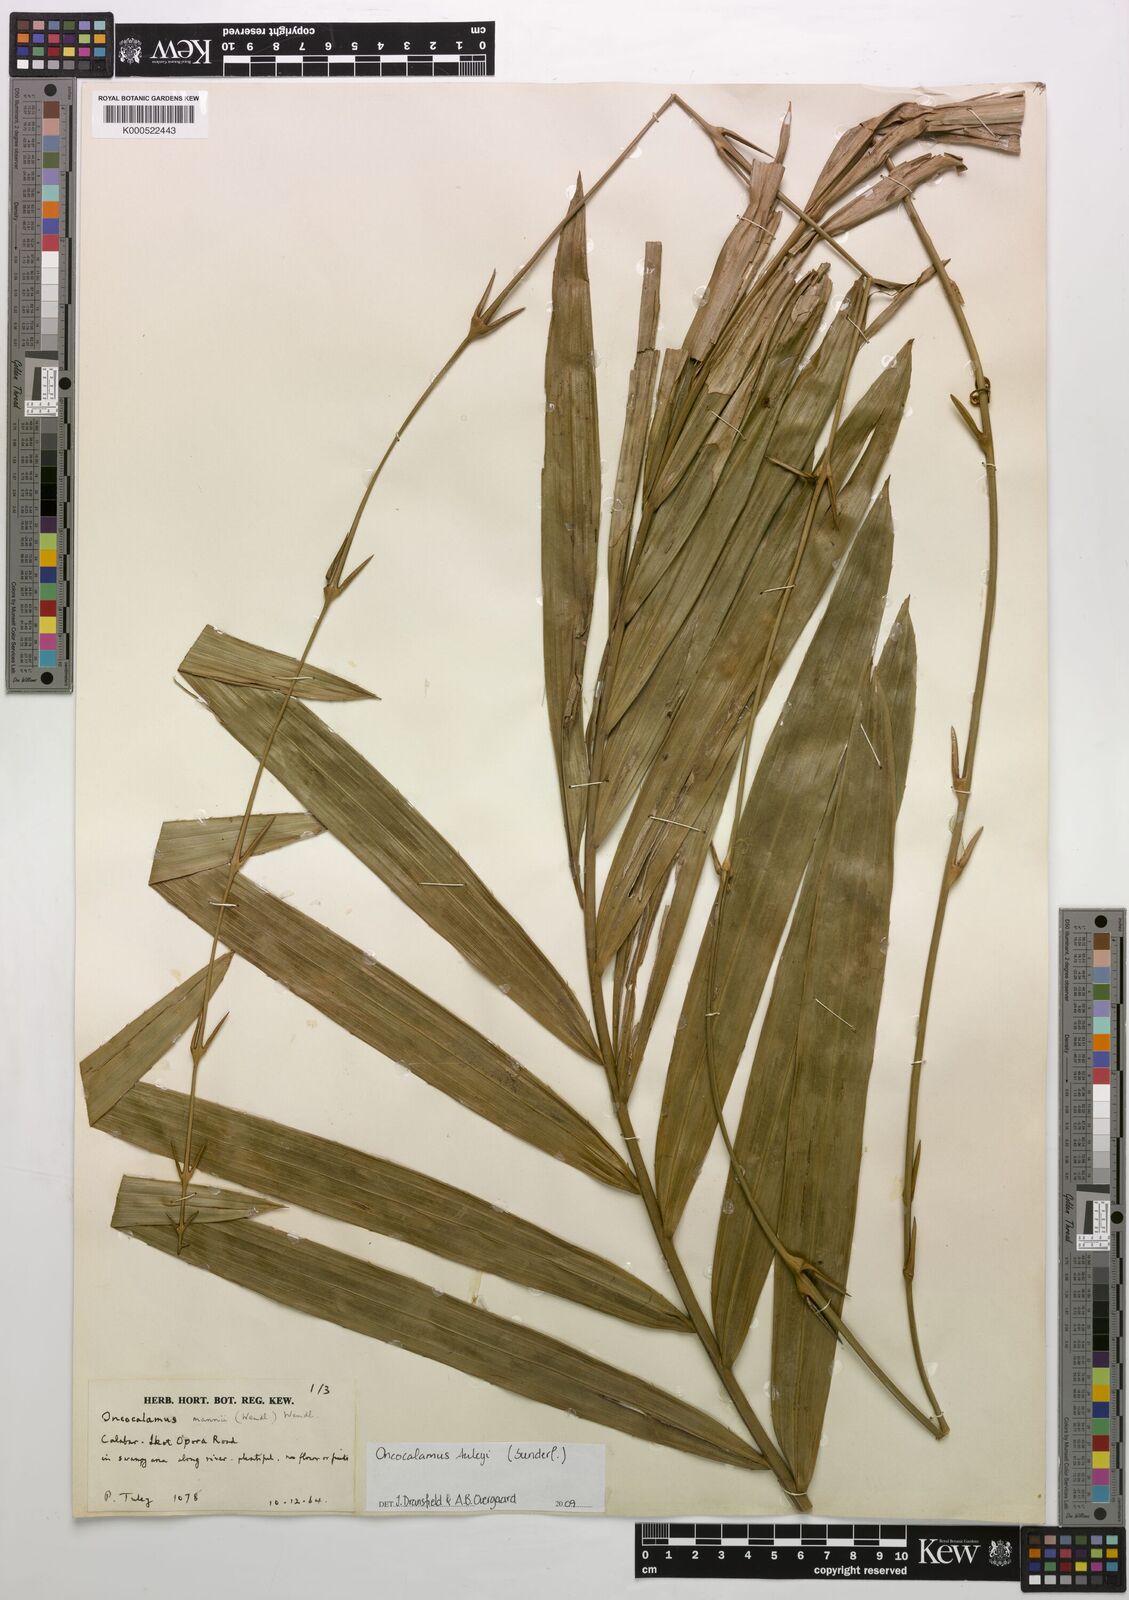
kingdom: Plantae
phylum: Tracheophyta
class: Liliopsida
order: Arecales
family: Arecaceae
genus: Oncocalamus
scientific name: Oncocalamus mannii
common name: Rattan
